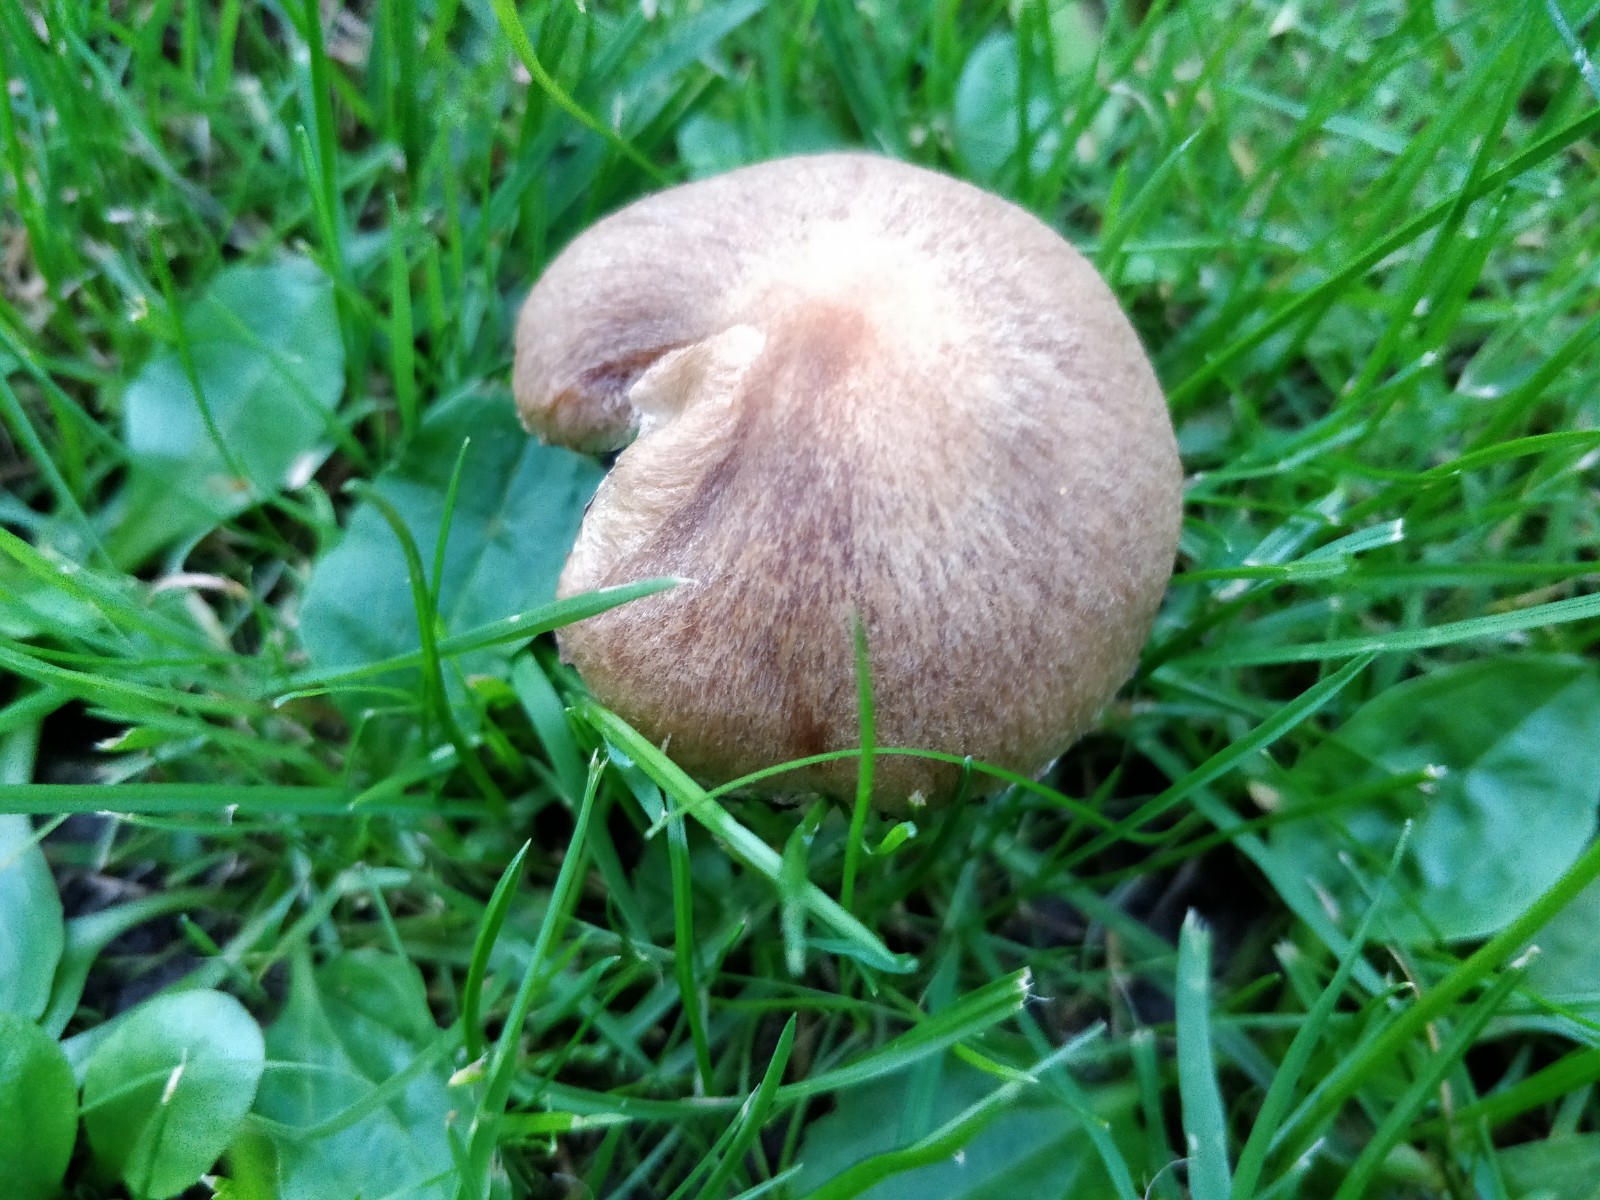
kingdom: Fungi
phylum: Basidiomycota
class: Agaricomycetes
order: Agaricales
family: Psathyrellaceae
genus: Lacrymaria
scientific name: Lacrymaria lacrymabunda
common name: grædende mørkhat
